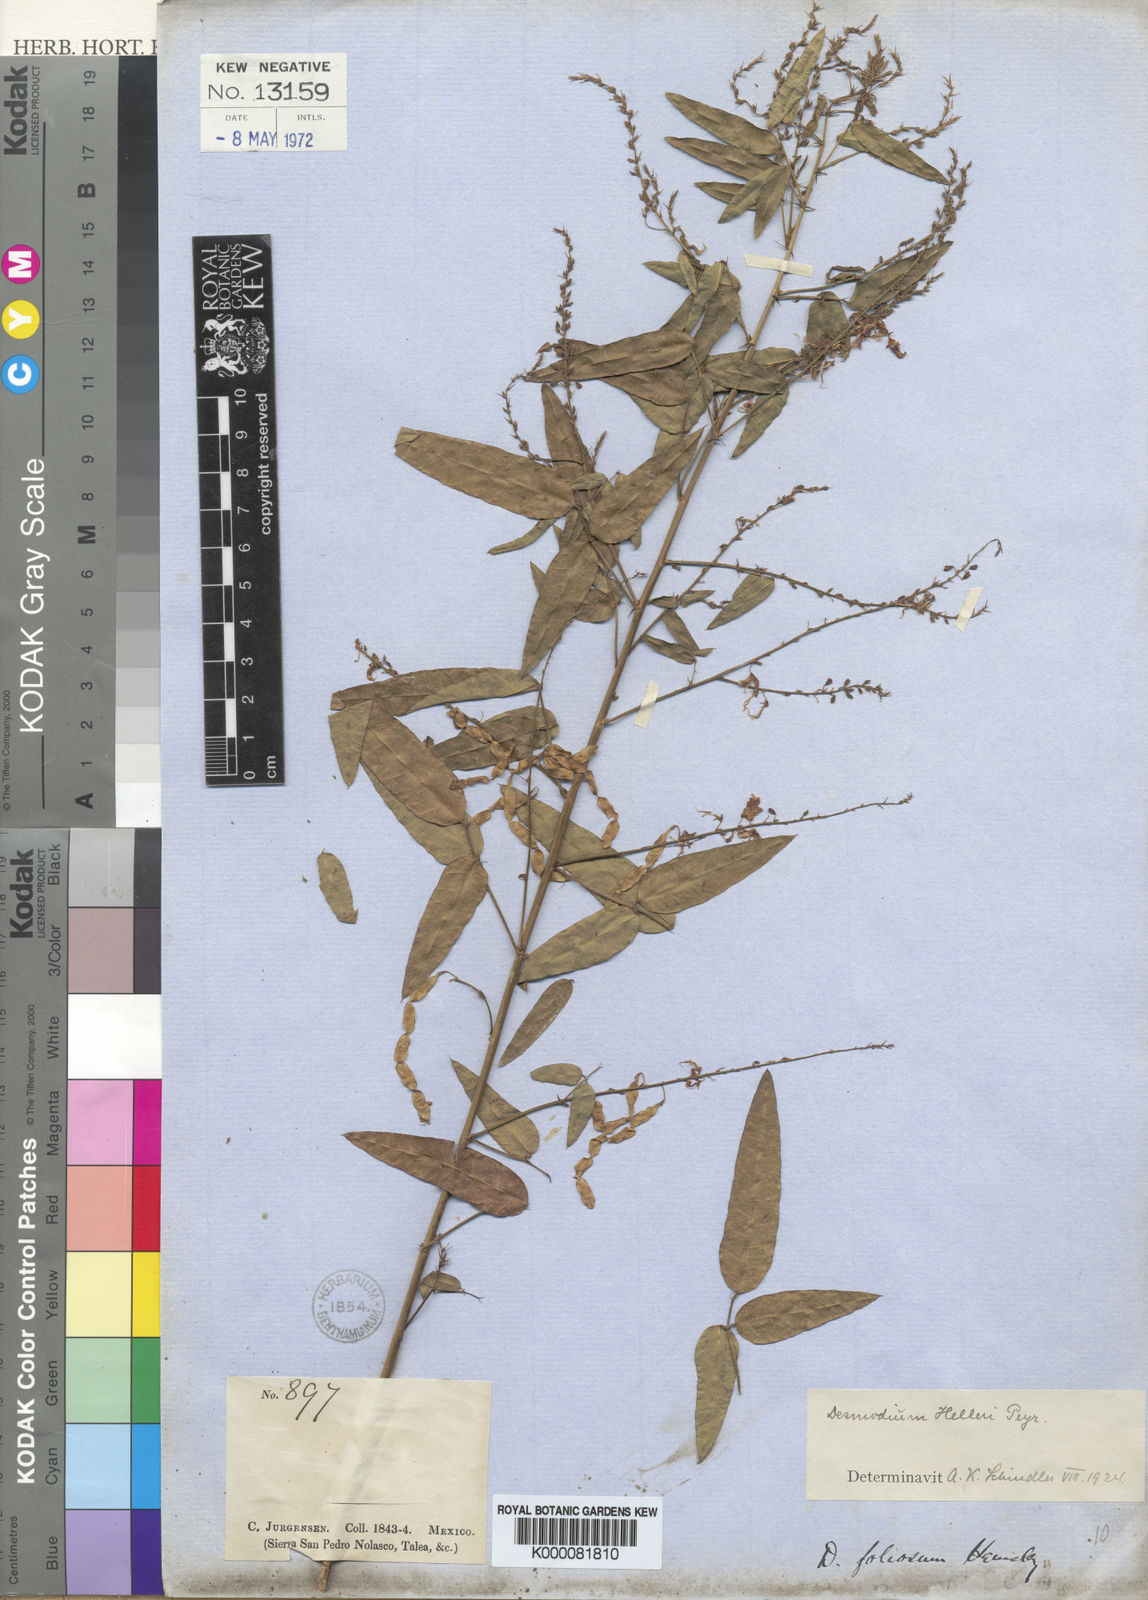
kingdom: Plantae
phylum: Tracheophyta
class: Magnoliopsida
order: Fabales
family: Fabaceae
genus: Desmodium
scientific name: Desmodium helleri
